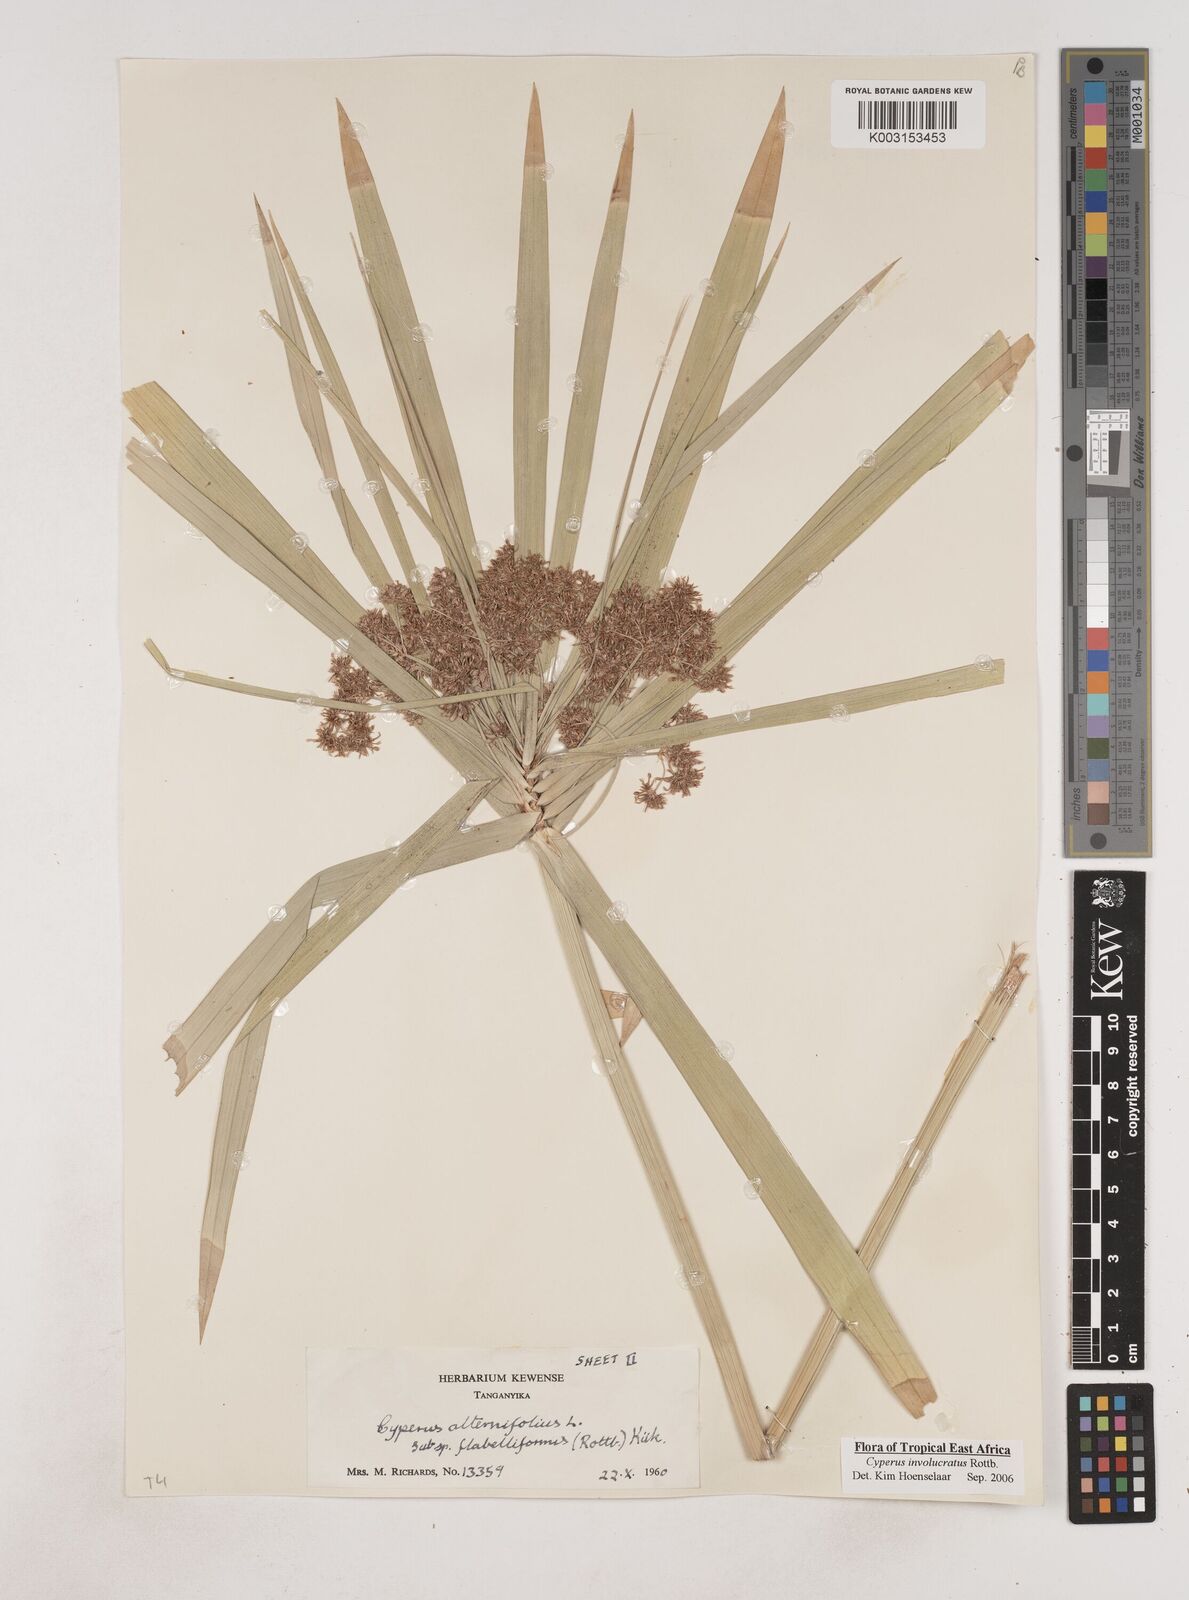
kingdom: Plantae
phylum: Tracheophyta
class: Liliopsida
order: Poales
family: Cyperaceae
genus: Cyperus
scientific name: Cyperus alternifolius
